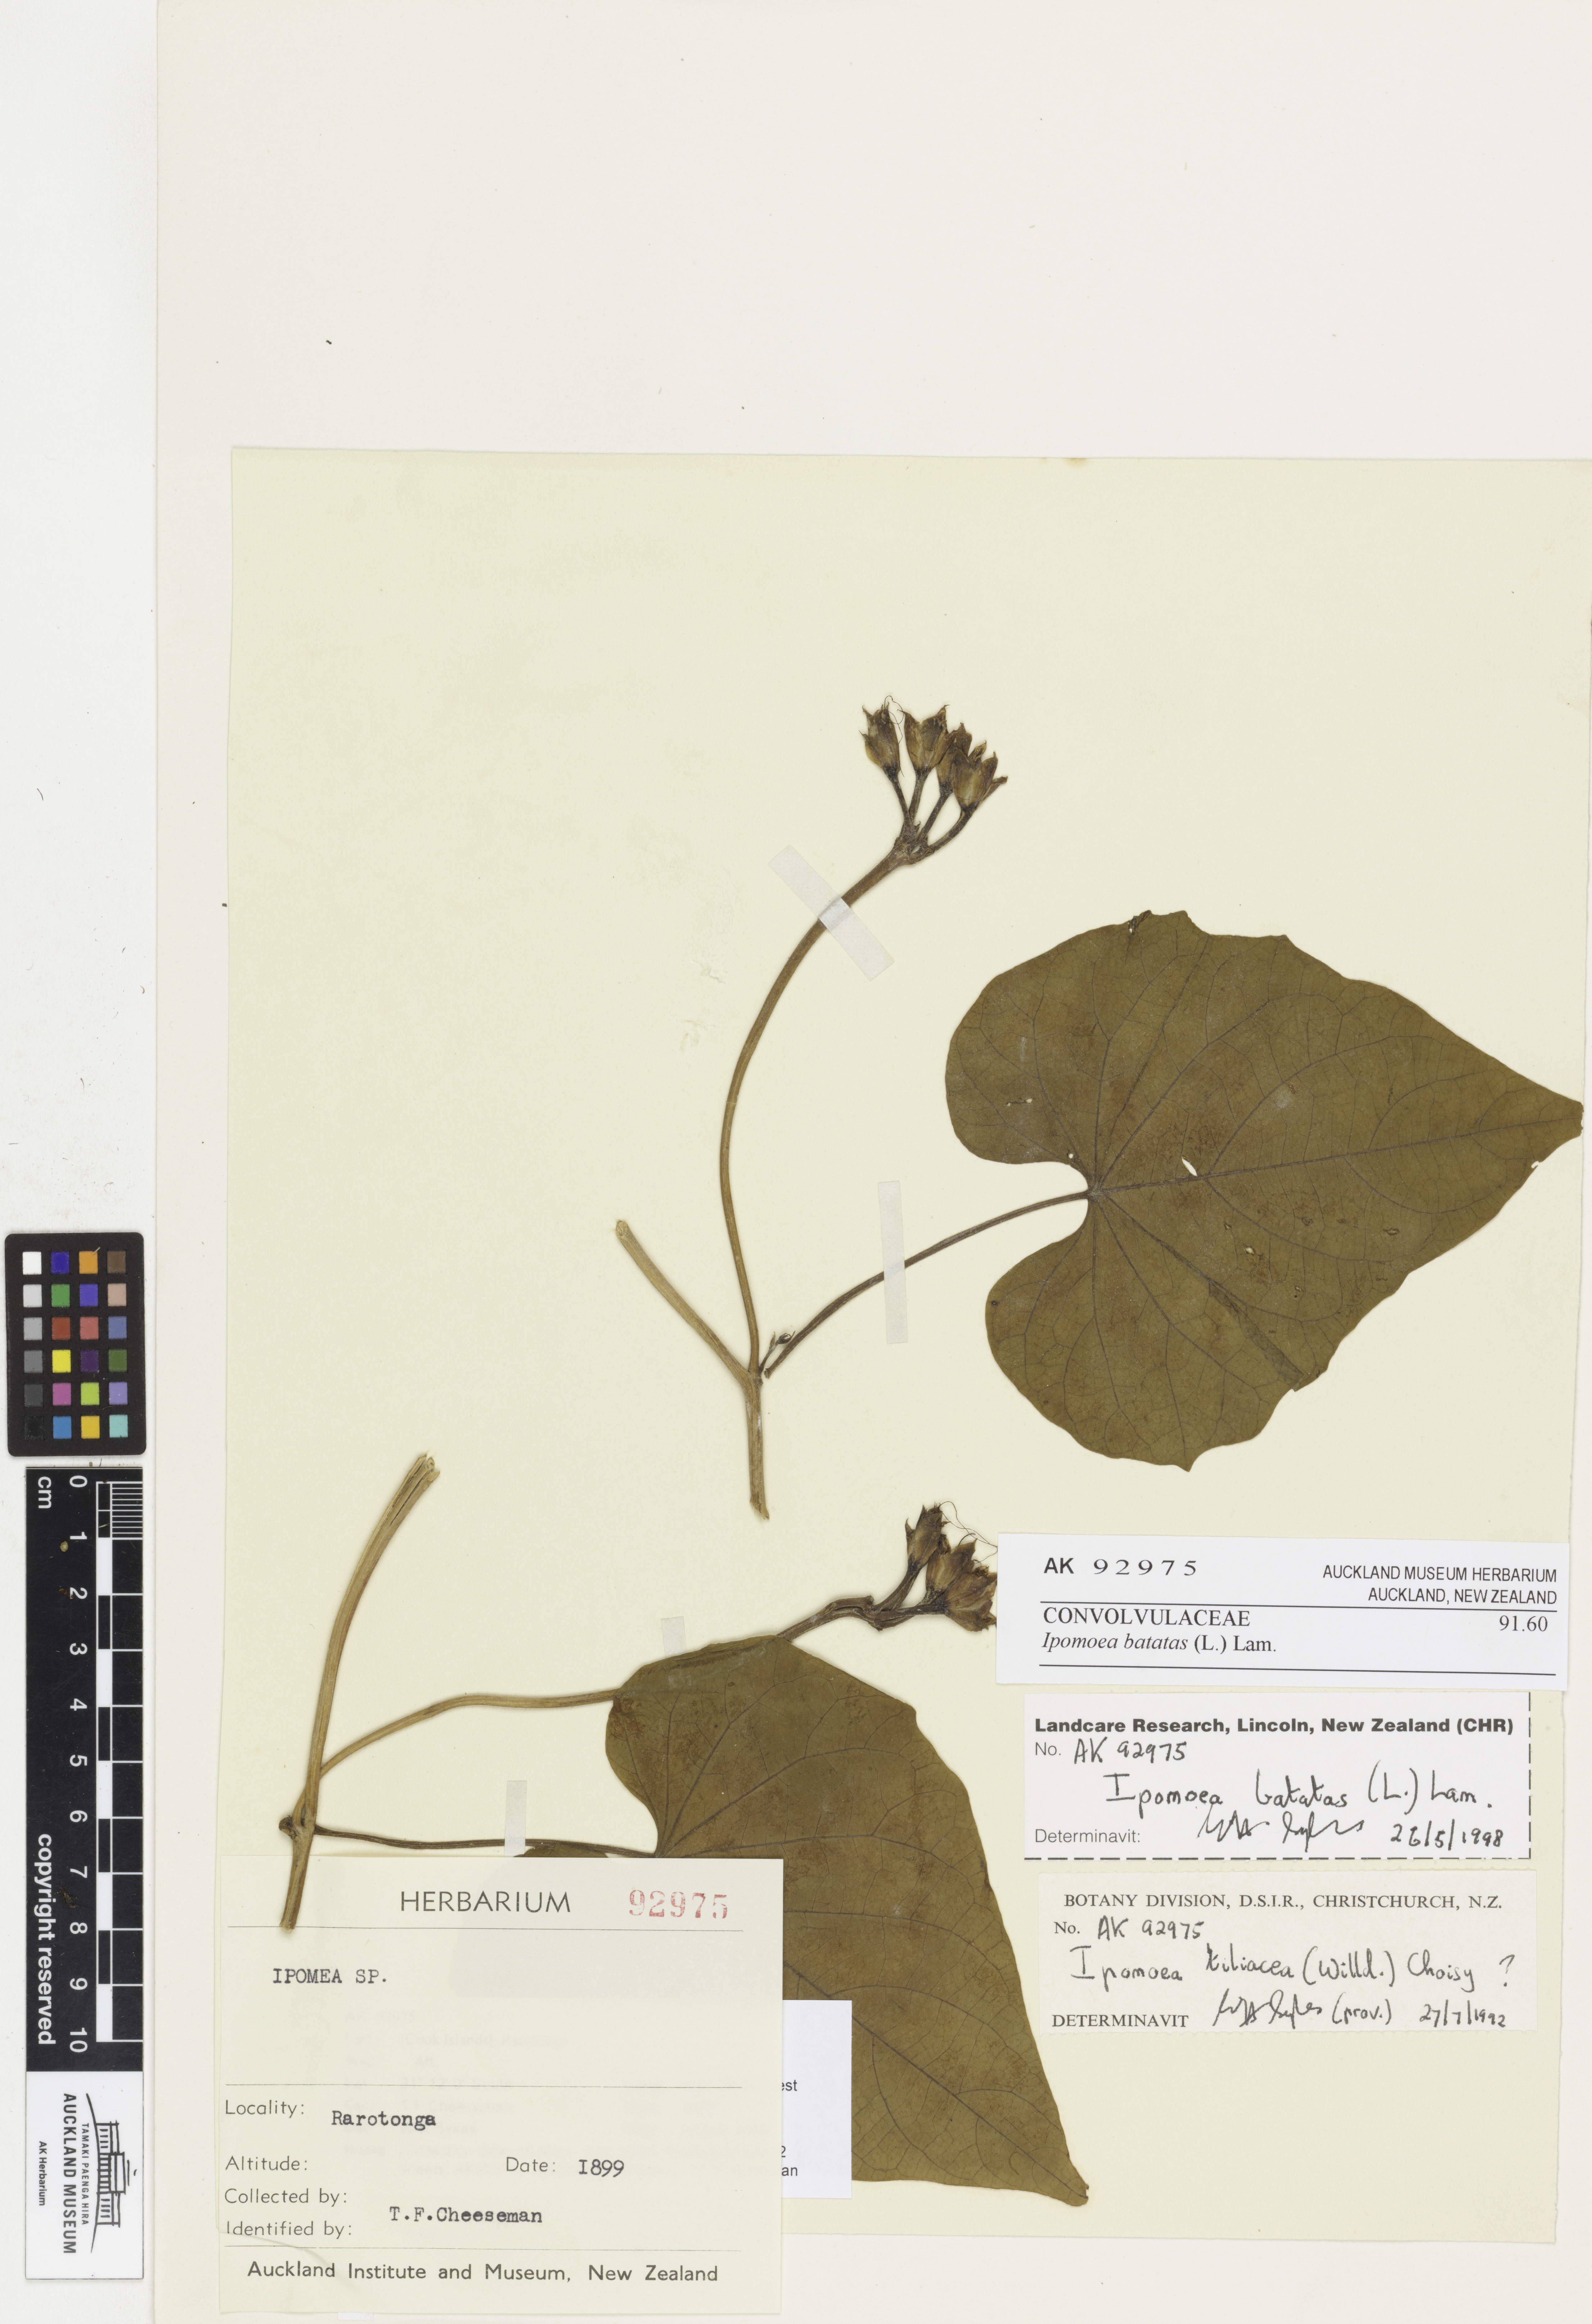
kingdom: Plantae
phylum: Tracheophyta
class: Magnoliopsida
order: Solanales
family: Convolvulaceae
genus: Ipomoea
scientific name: Ipomoea batatas
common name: Sweet-potato
